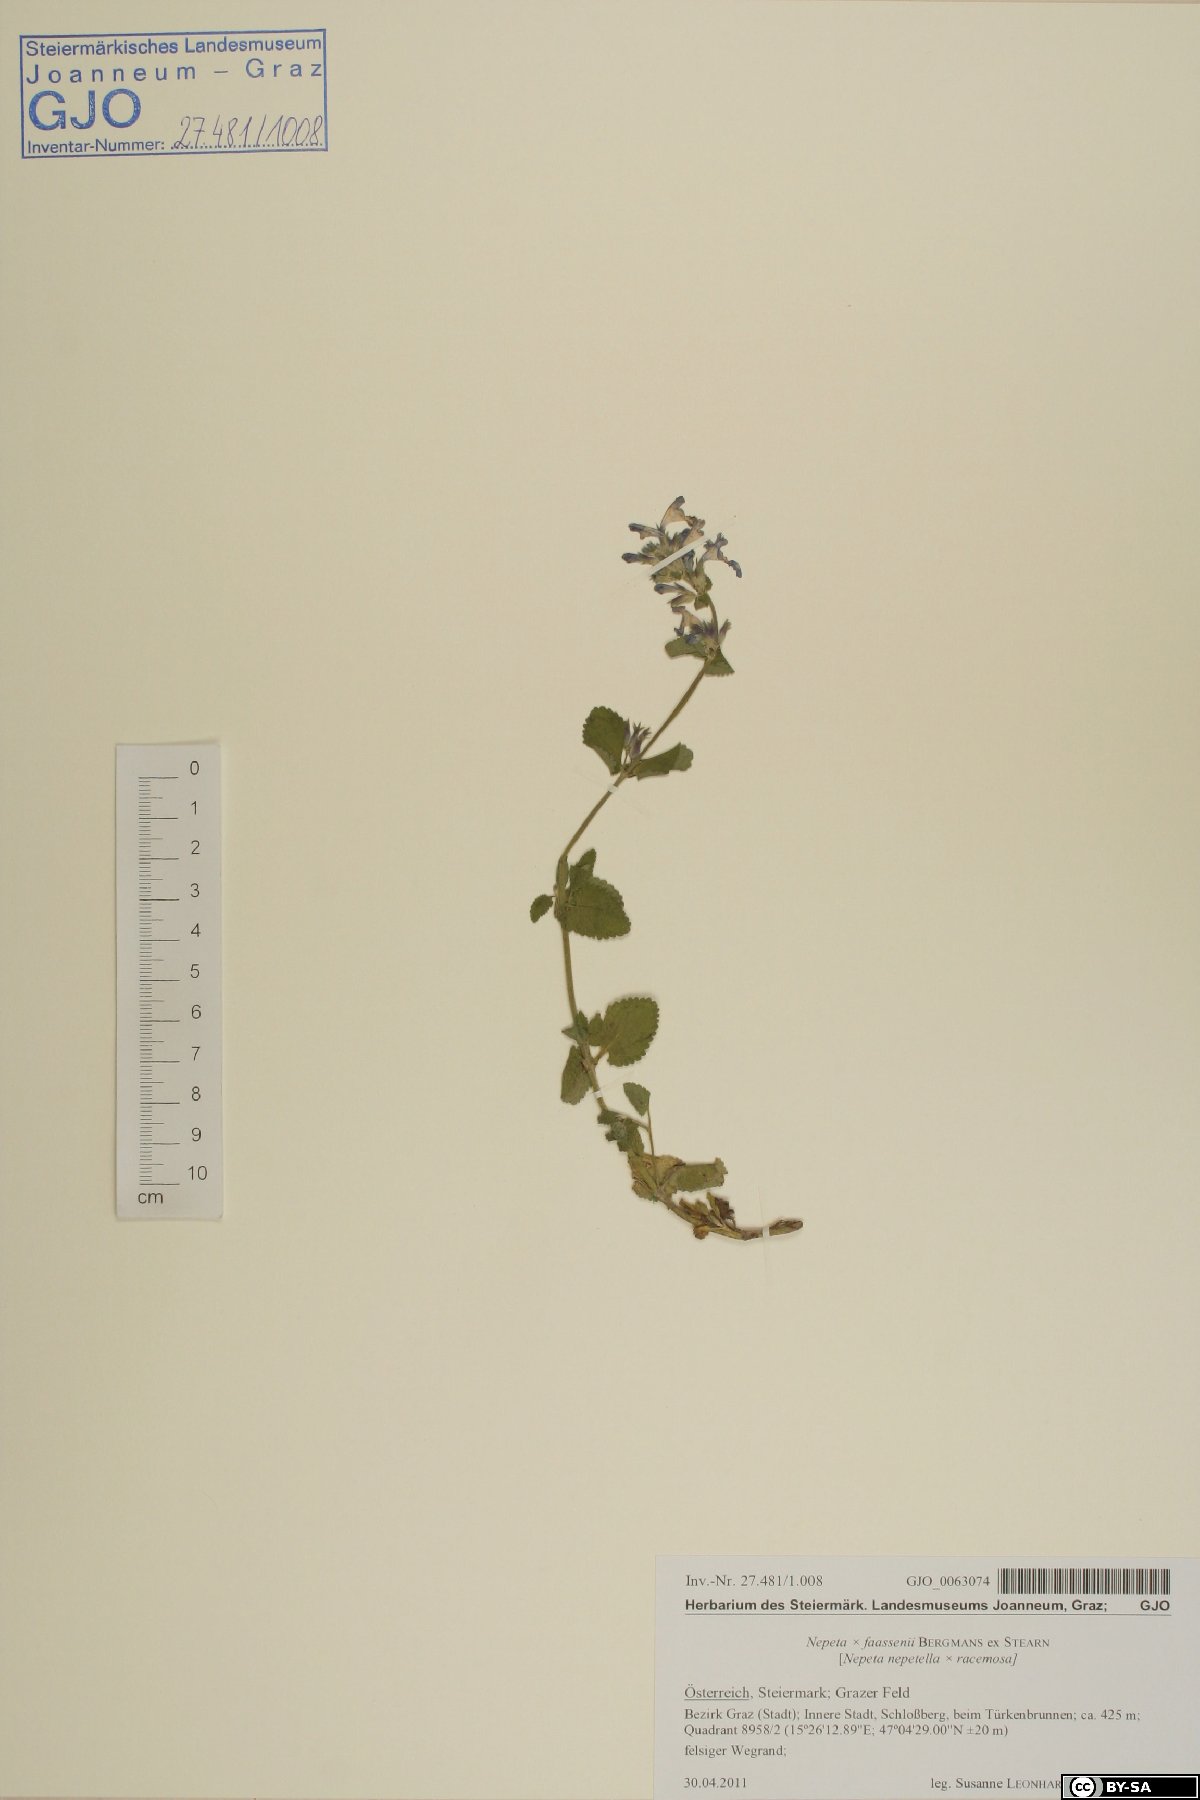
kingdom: Plantae
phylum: Tracheophyta
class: Magnoliopsida
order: Lamiales
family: Lamiaceae
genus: Nepeta
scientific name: Nepeta faassenii
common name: Catmint
